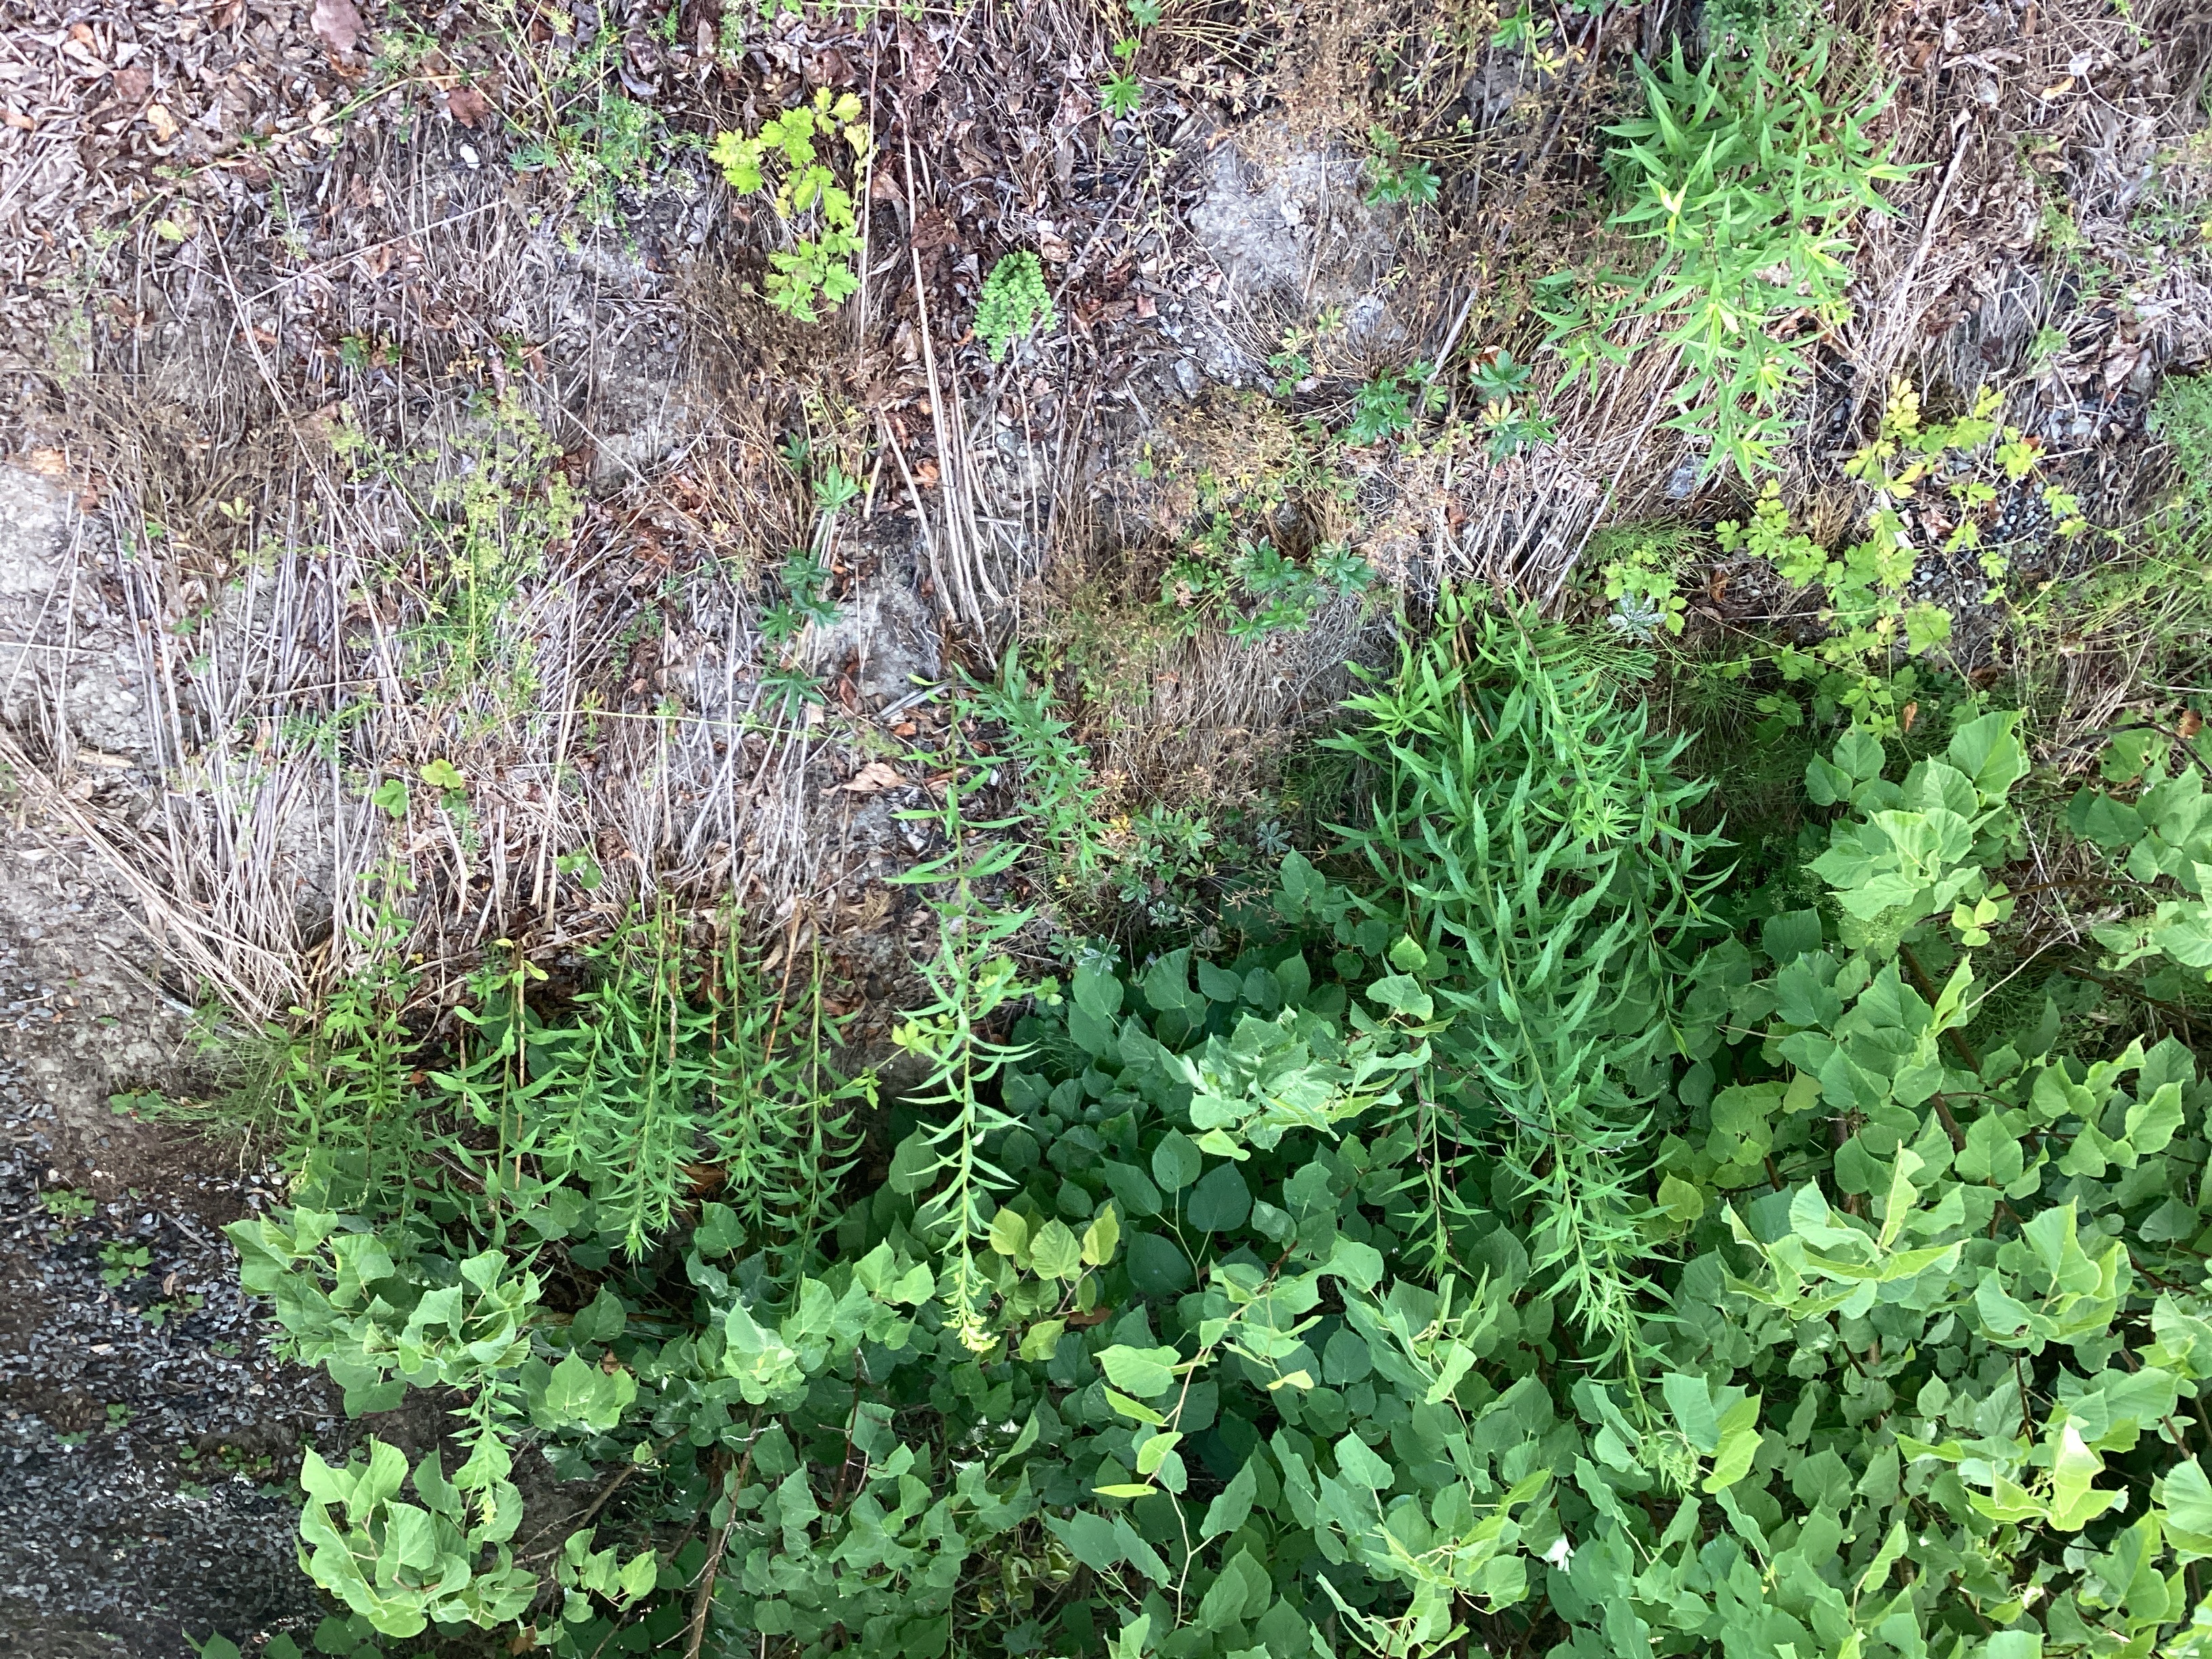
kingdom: Plantae
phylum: Tracheophyta
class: Magnoliopsida
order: Asterales
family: Asteraceae
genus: Solidago
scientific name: Solidago canadensis
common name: kanadagullris
